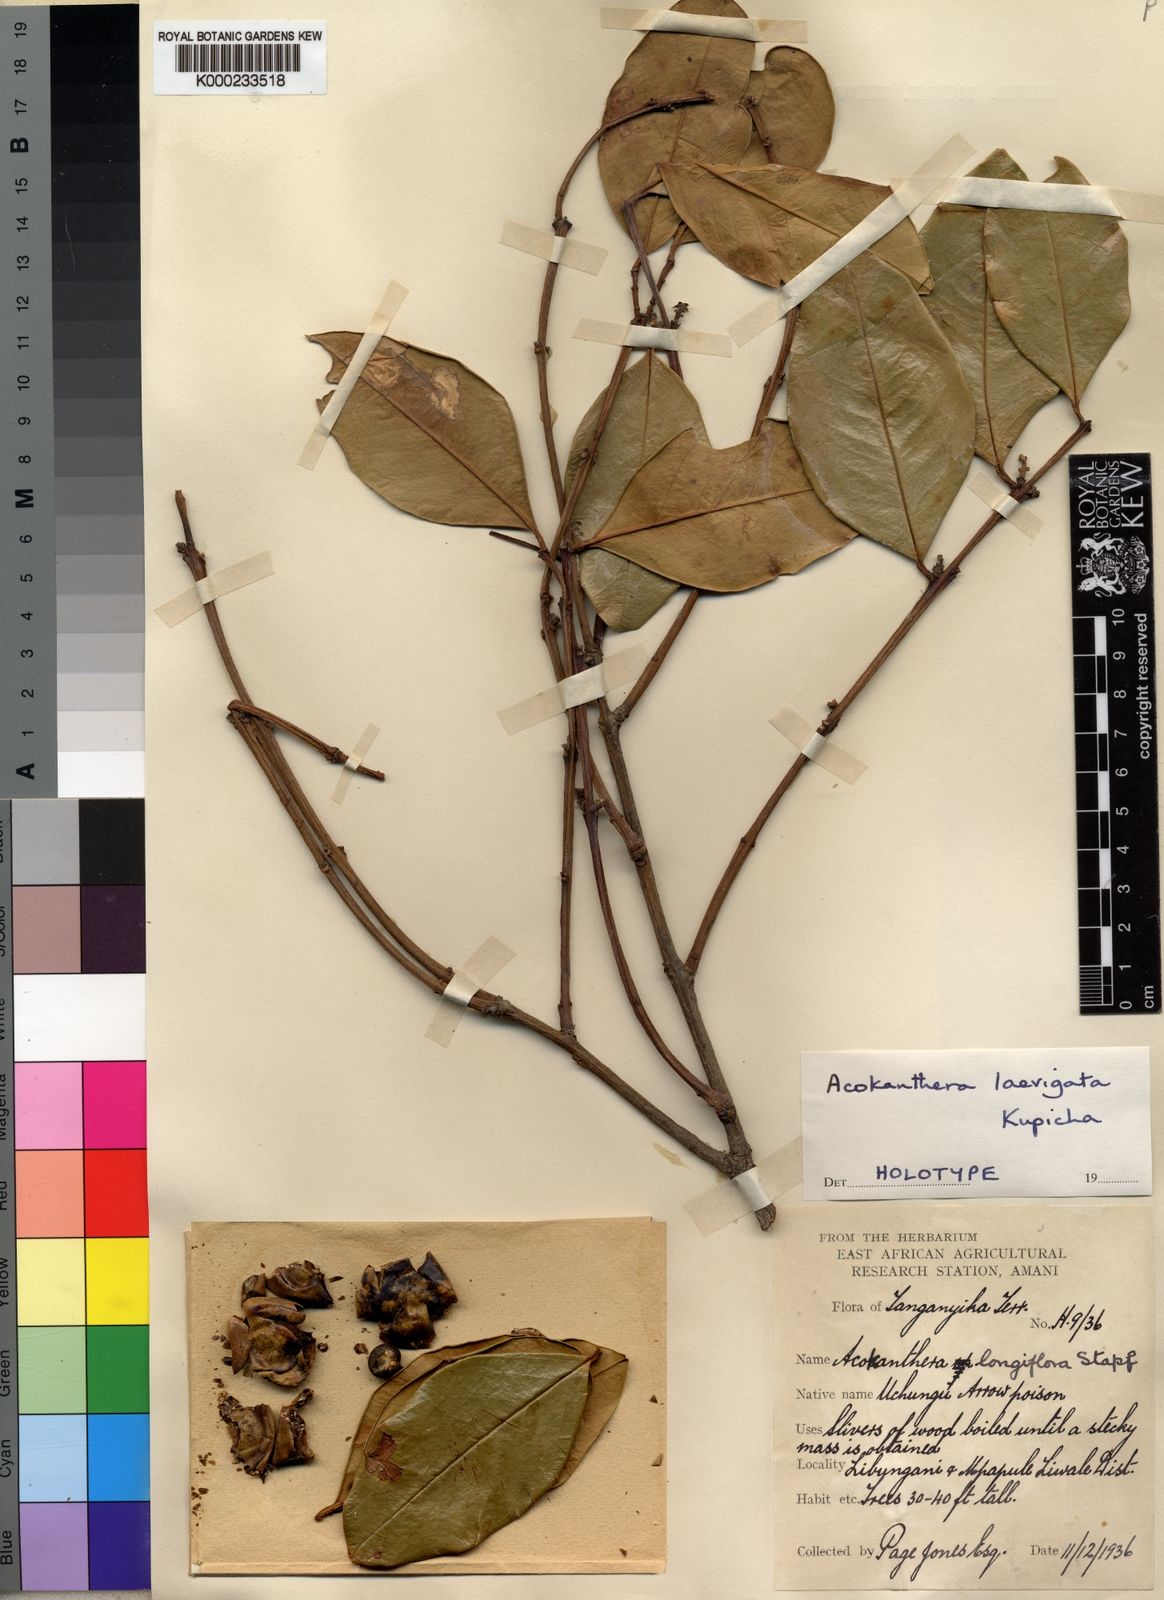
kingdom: Plantae
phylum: Tracheophyta
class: Magnoliopsida
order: Gentianales
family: Apocynaceae
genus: Acokanthera
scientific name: Acokanthera laevigata
